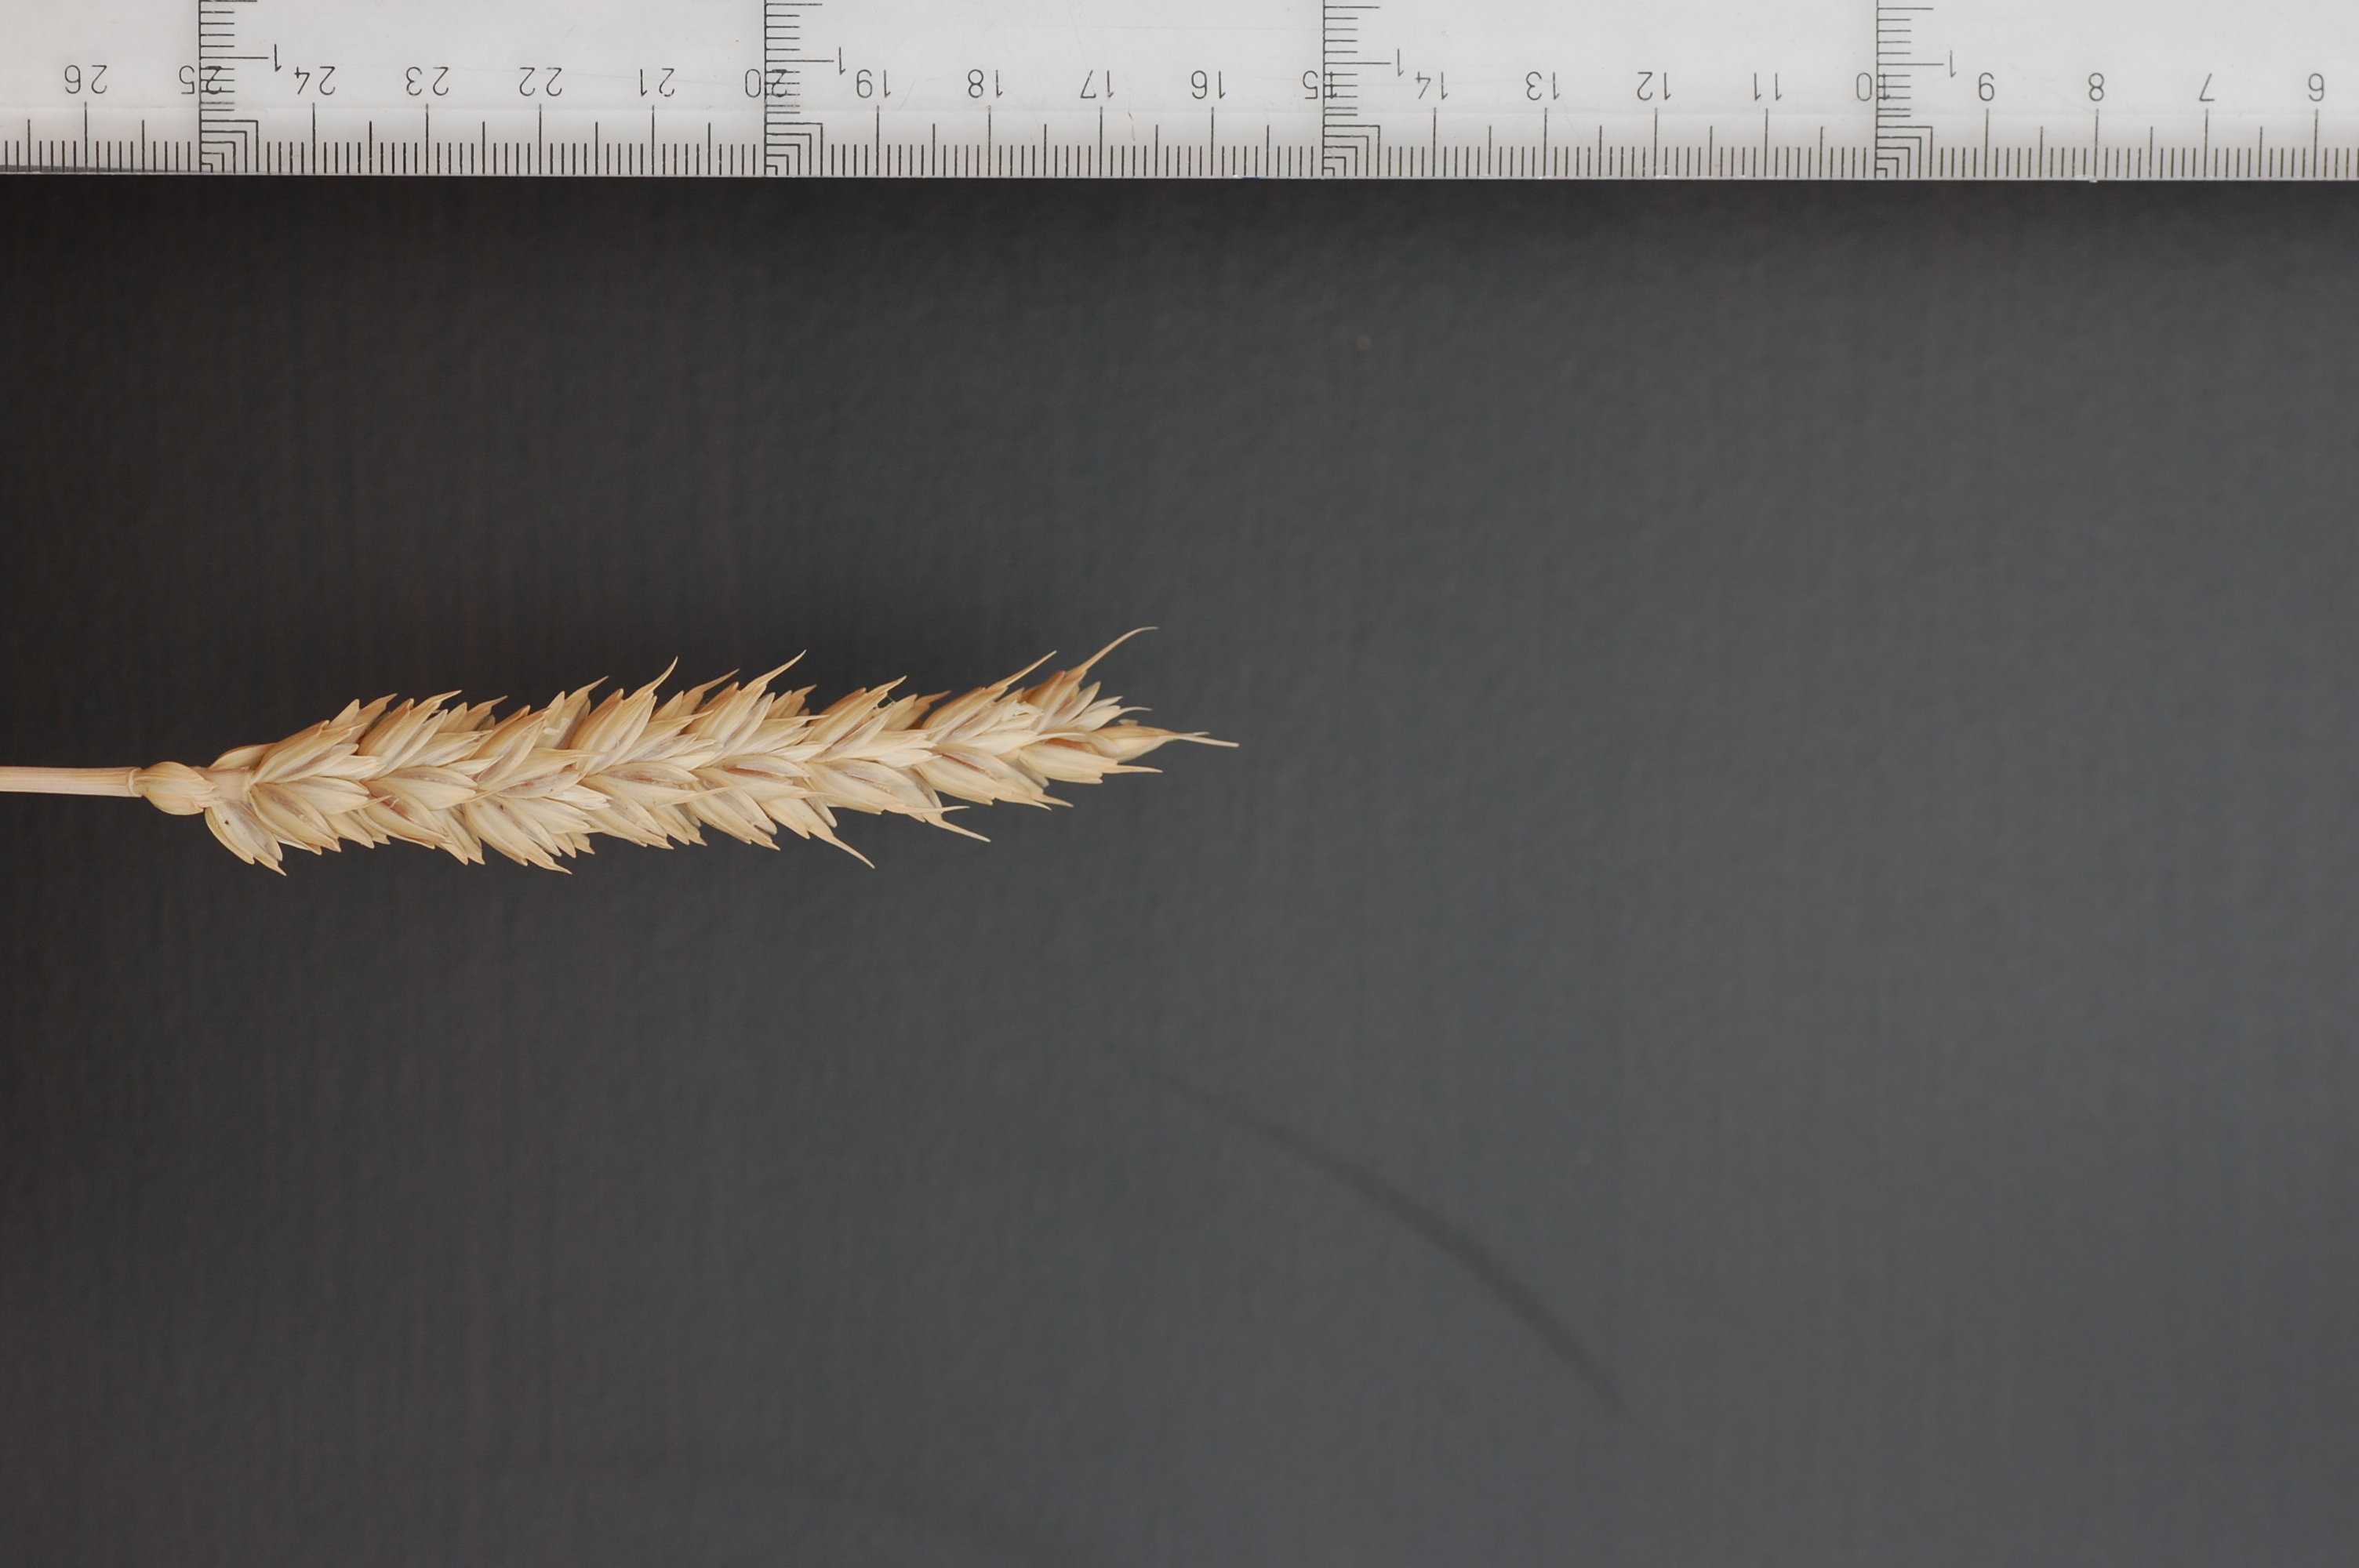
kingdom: Plantae
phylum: Tracheophyta
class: Liliopsida
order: Poales
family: Poaceae
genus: Triticum
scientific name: Triticum aestivum
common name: Common wheat
